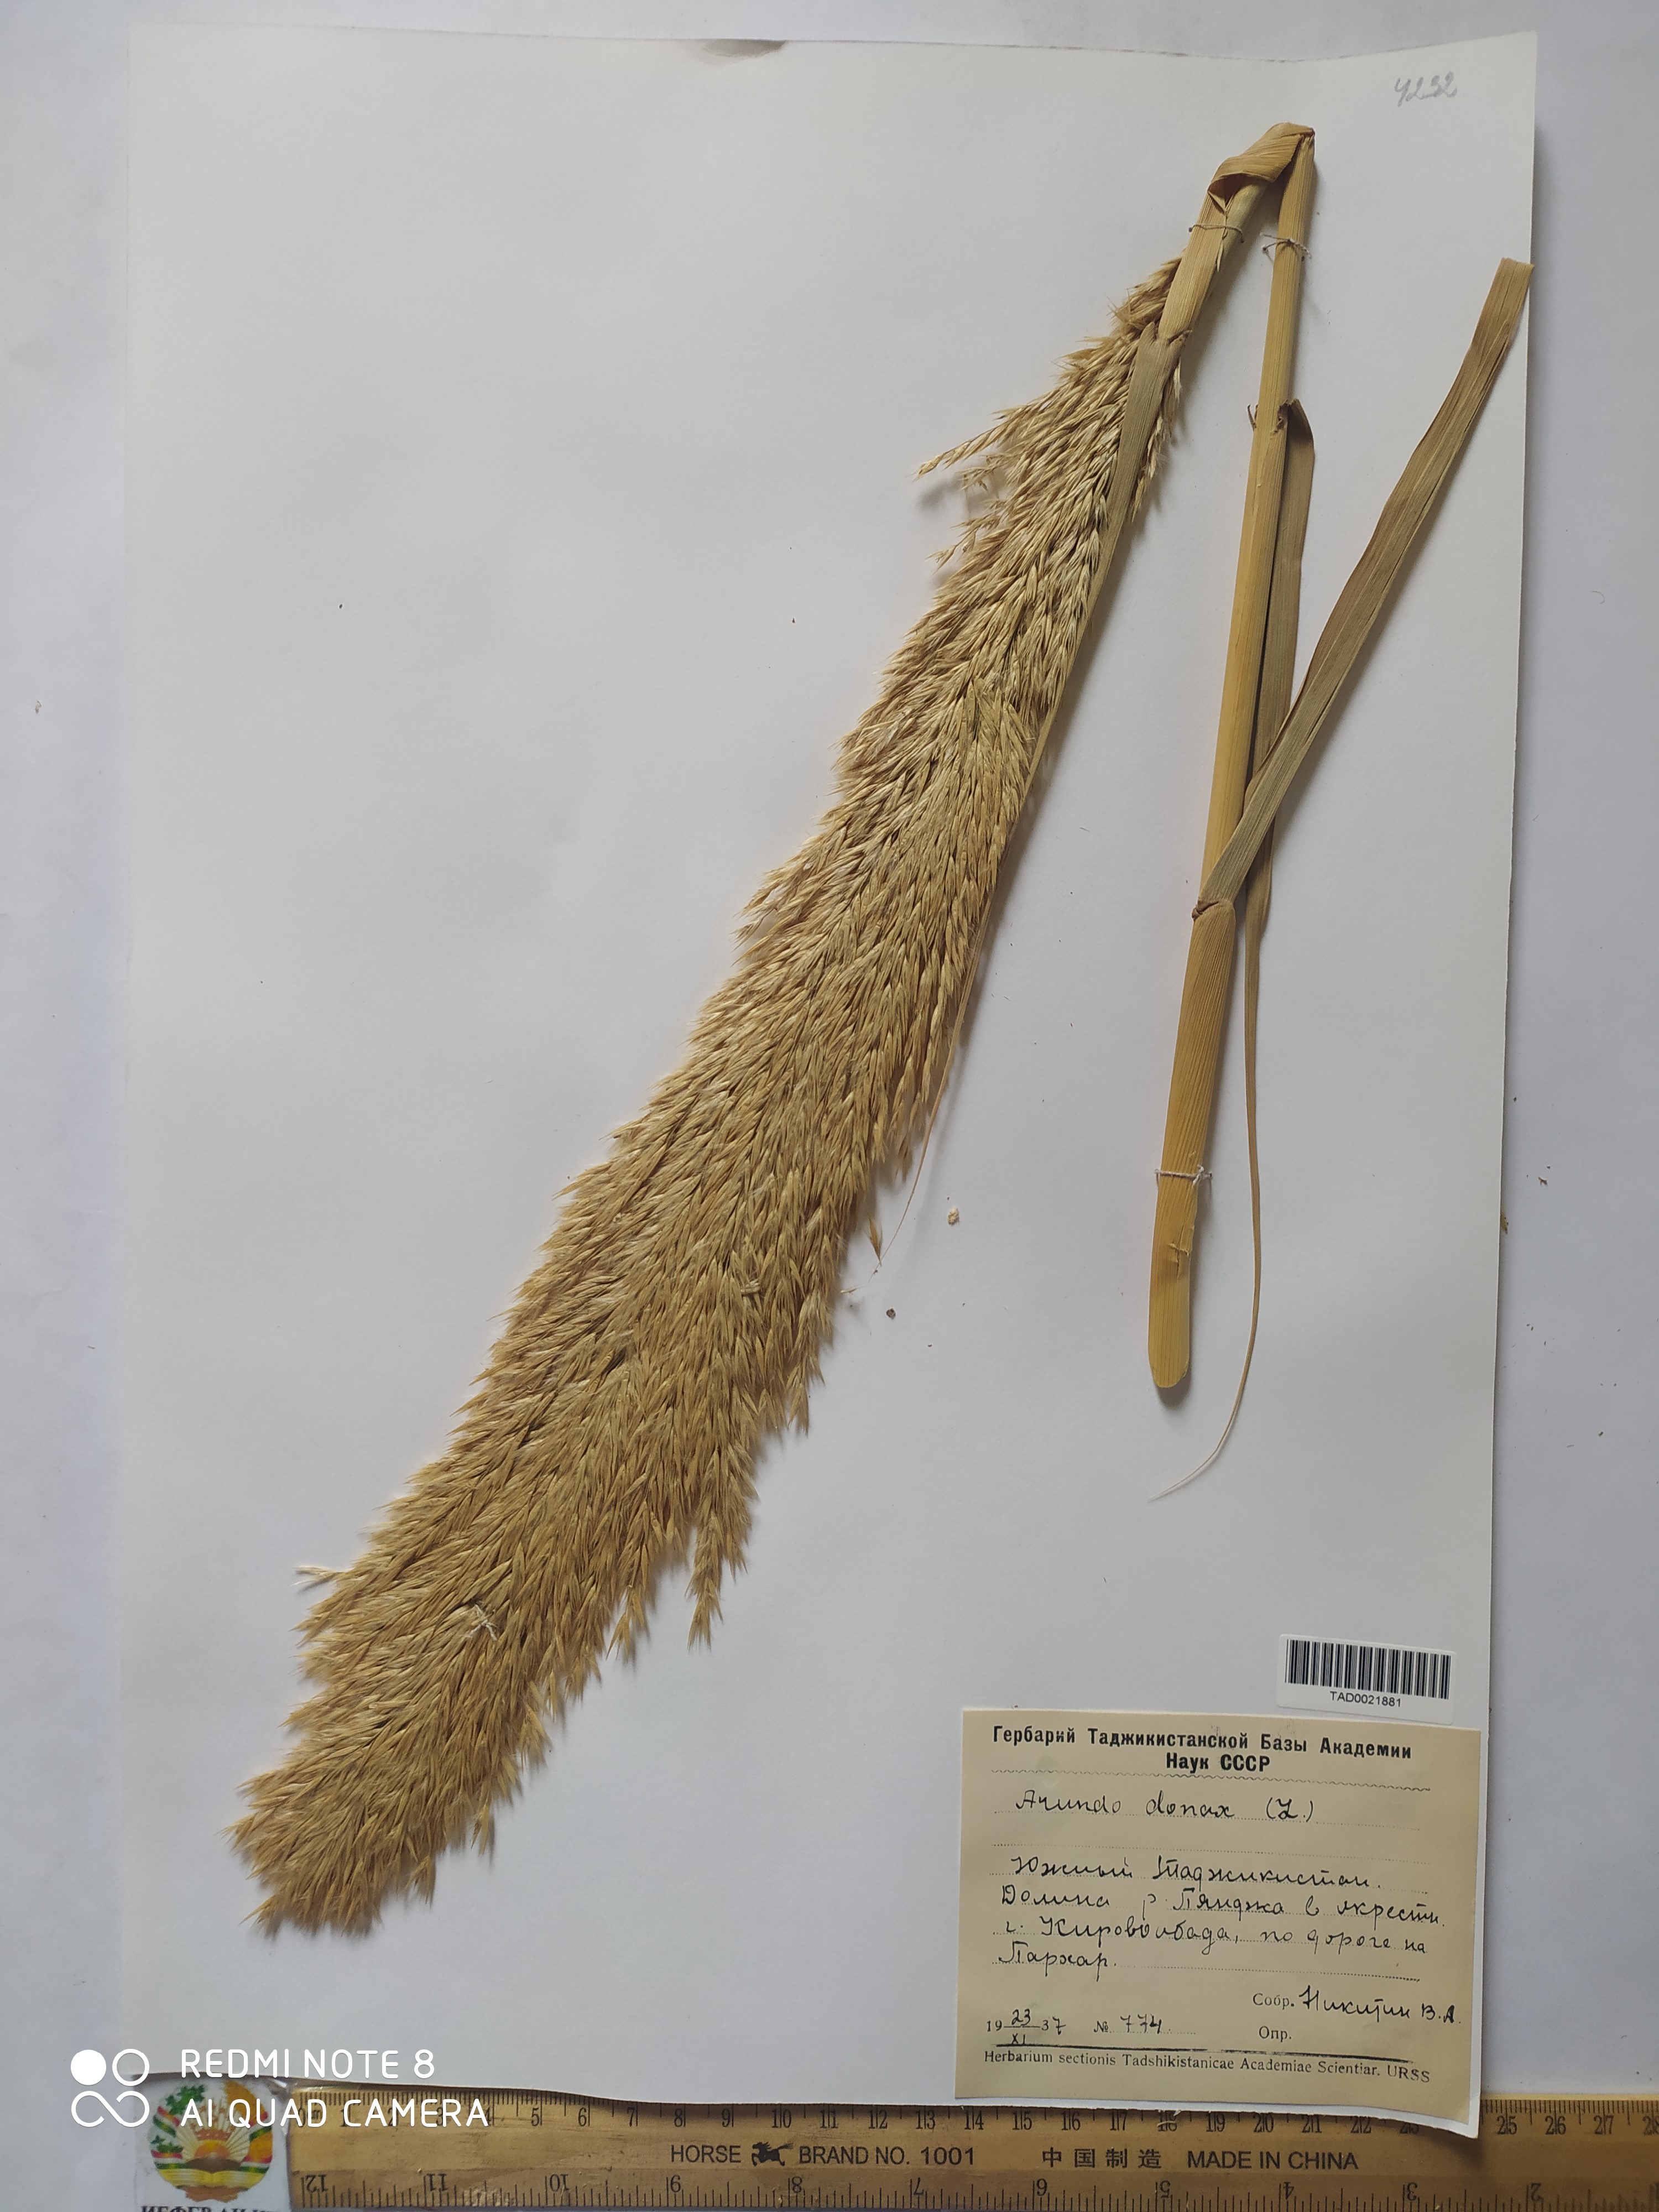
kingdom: Plantae
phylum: Tracheophyta
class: Liliopsida
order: Poales
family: Poaceae
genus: Arundo
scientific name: Arundo donax
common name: Giant reed
